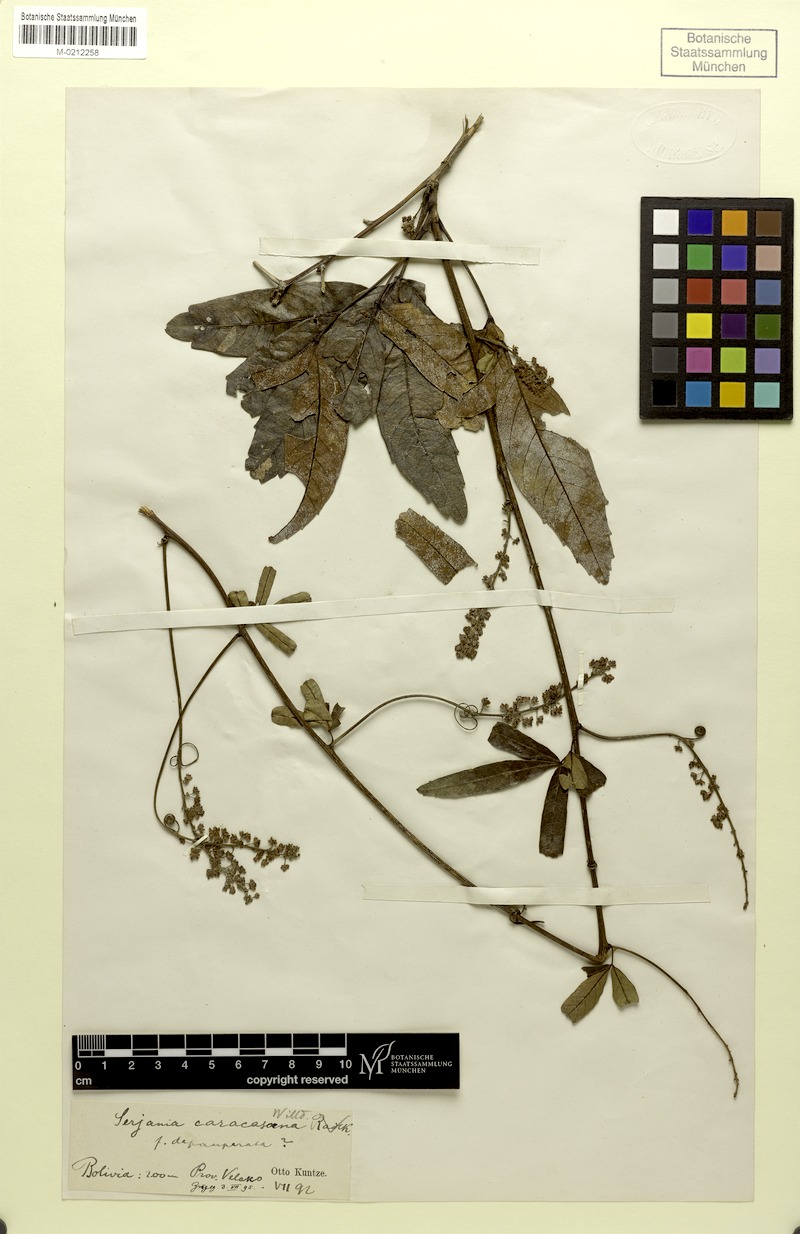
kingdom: Plantae
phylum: Tracheophyta
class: Magnoliopsida
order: Sapindales
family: Sapindaceae
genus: Serjania
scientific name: Serjania caracasana
